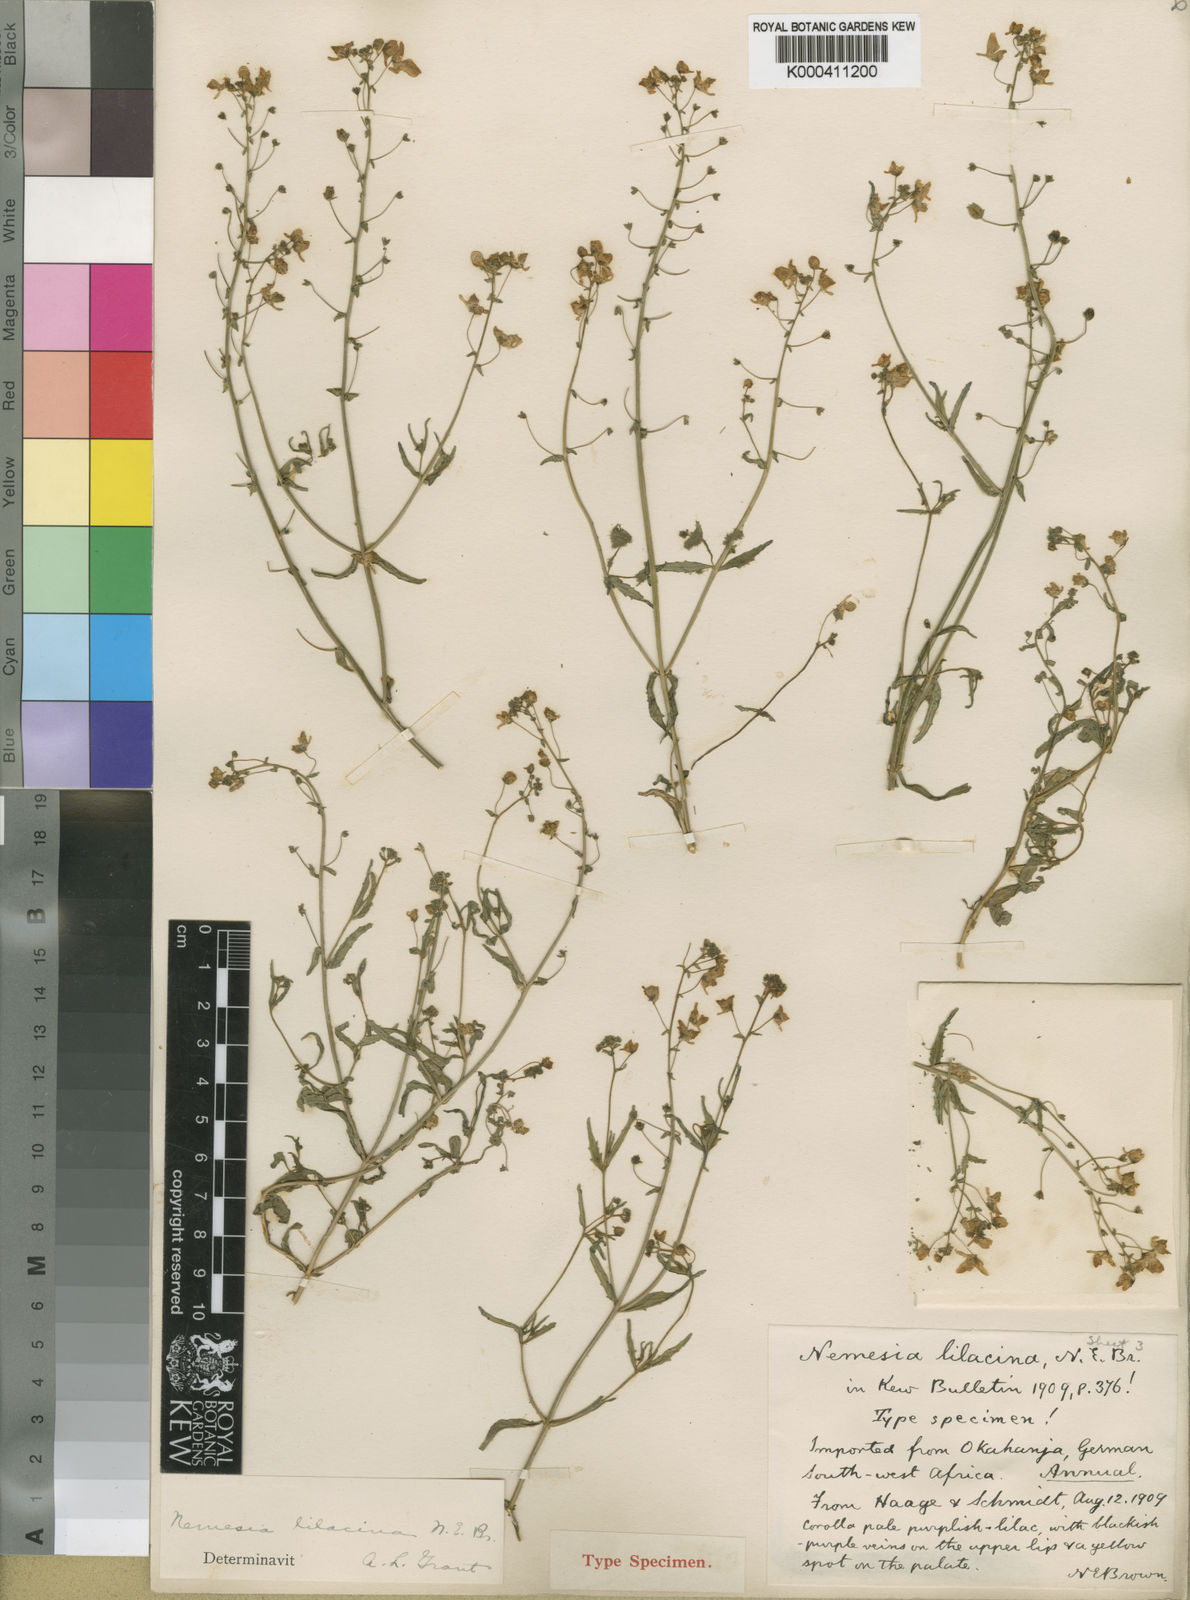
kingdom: Plantae
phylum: Tracheophyta
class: Magnoliopsida
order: Lamiales
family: Scrophulariaceae
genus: Nemesia
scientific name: Nemesia lilacina
